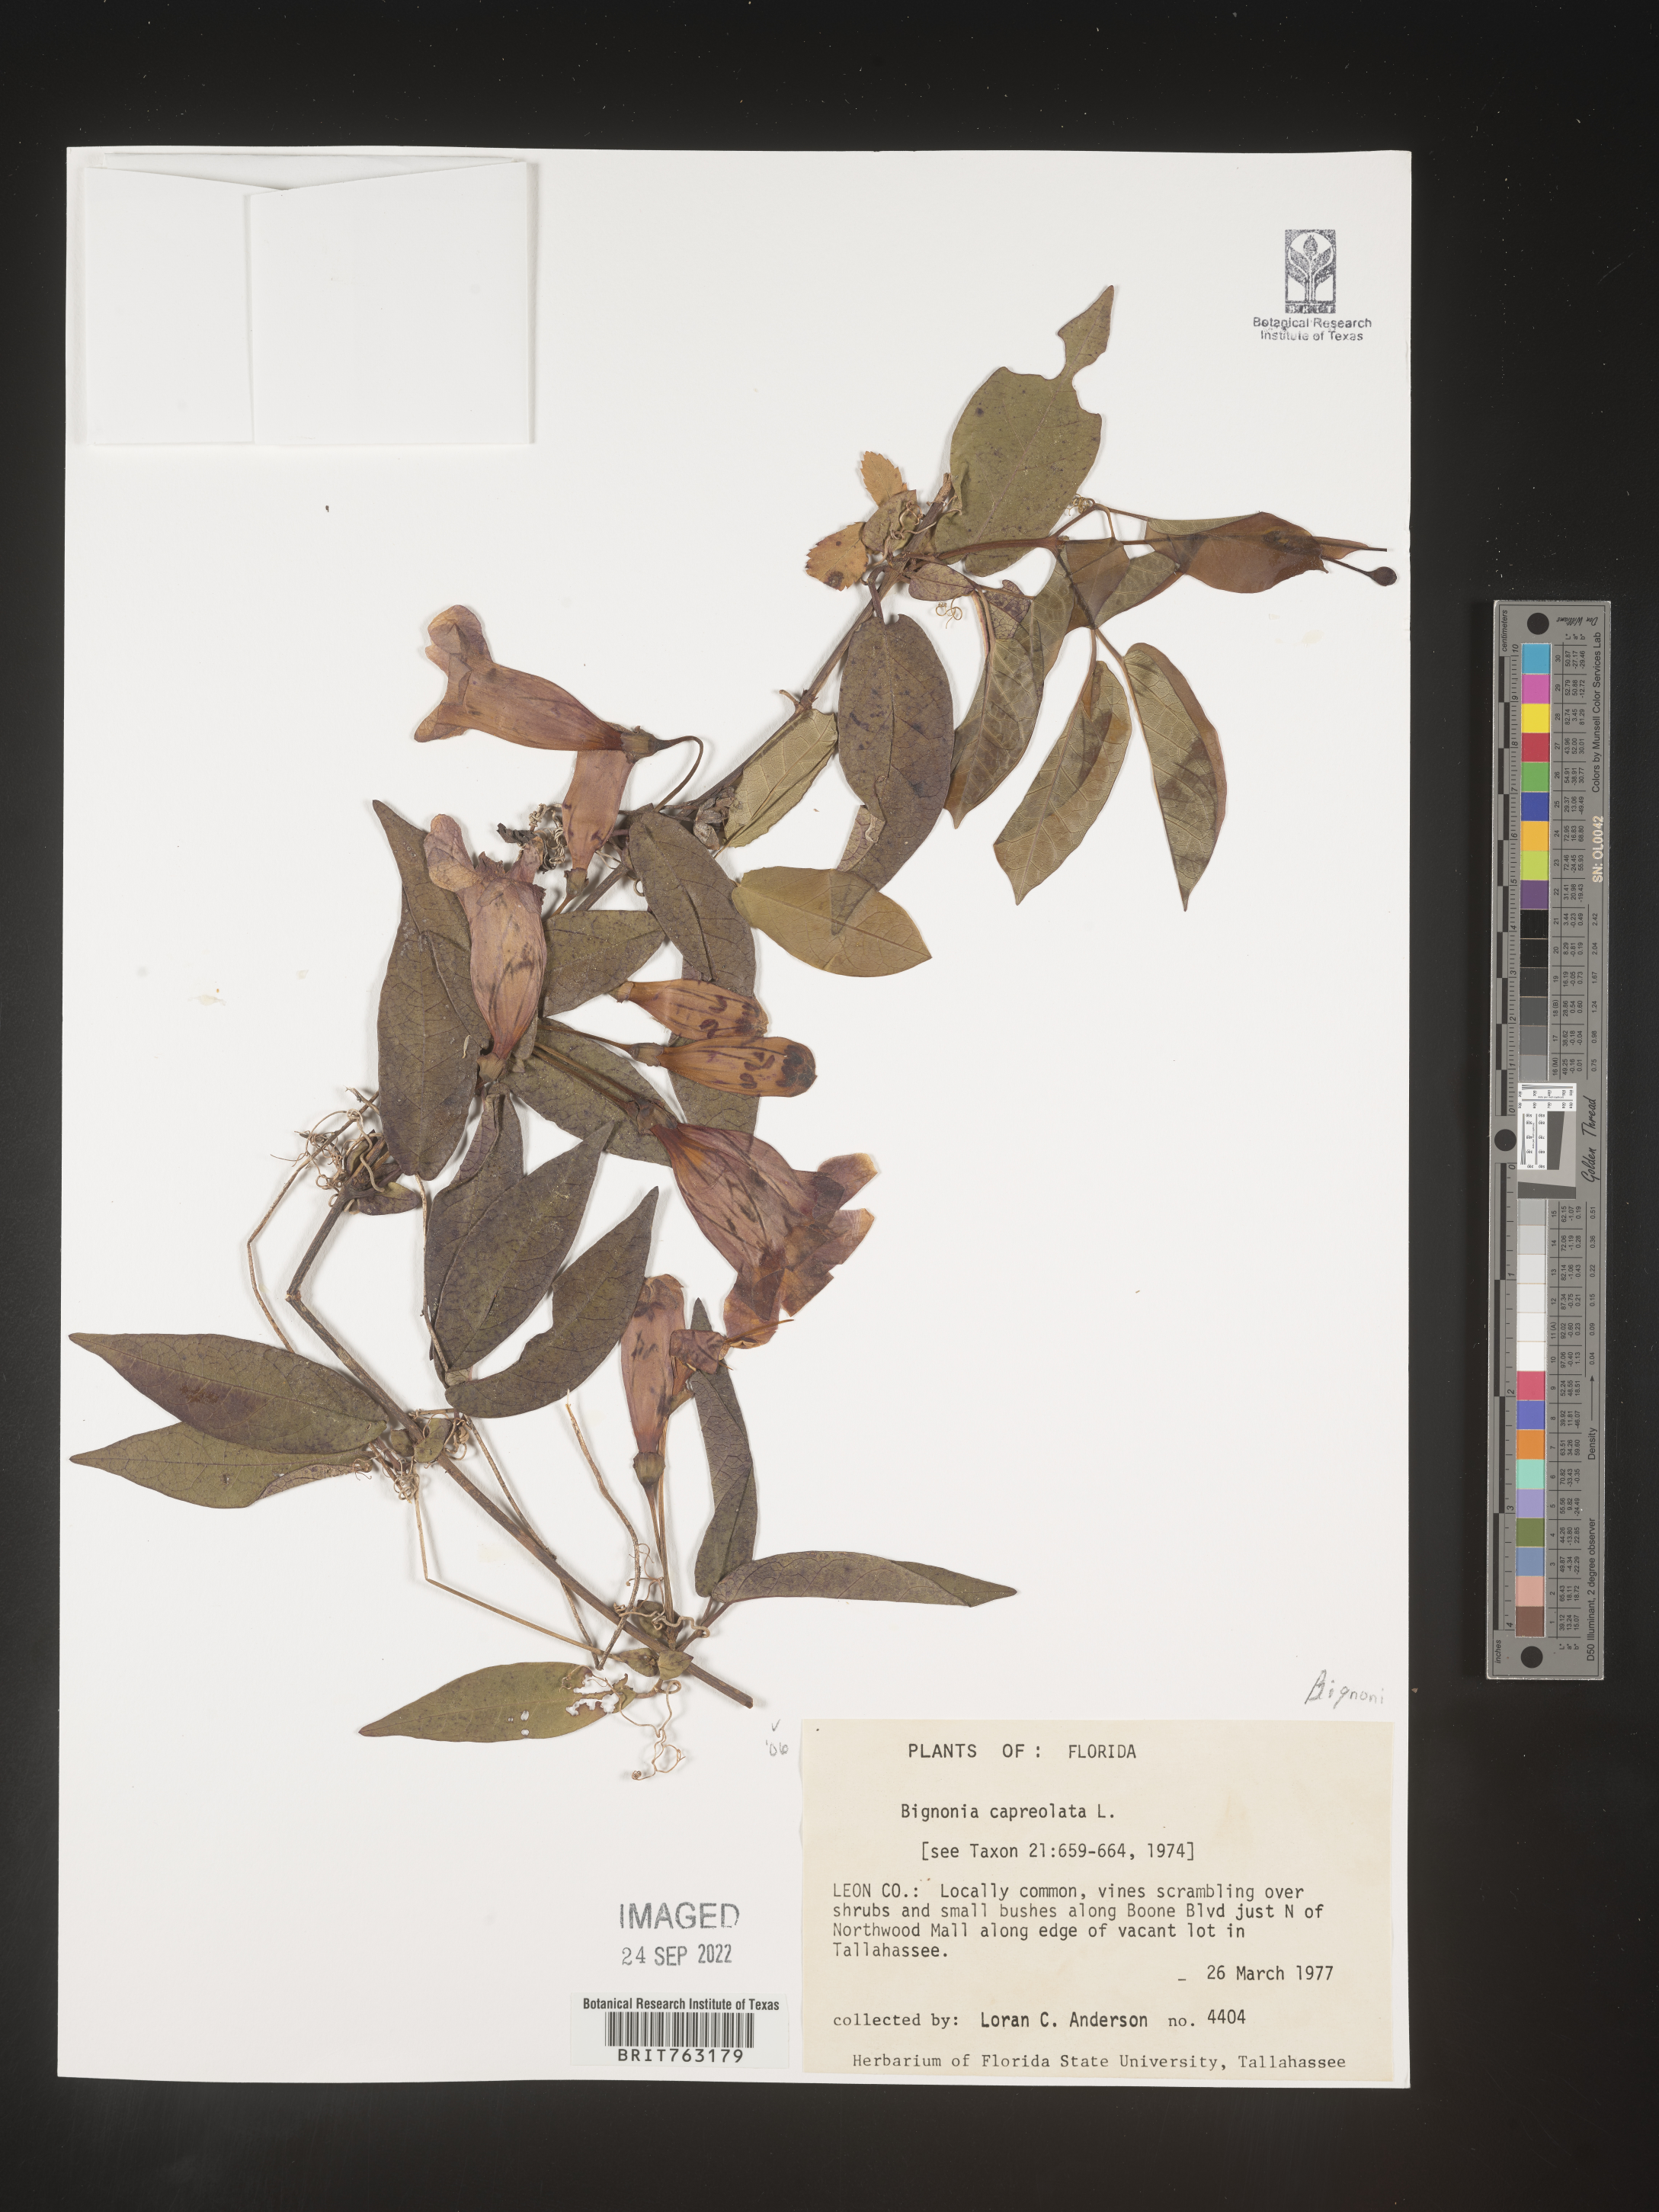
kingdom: Plantae
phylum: Tracheophyta
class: Magnoliopsida
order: Lamiales
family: Bignoniaceae
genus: Bignonia
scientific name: Bignonia capreolata
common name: Crossvine
